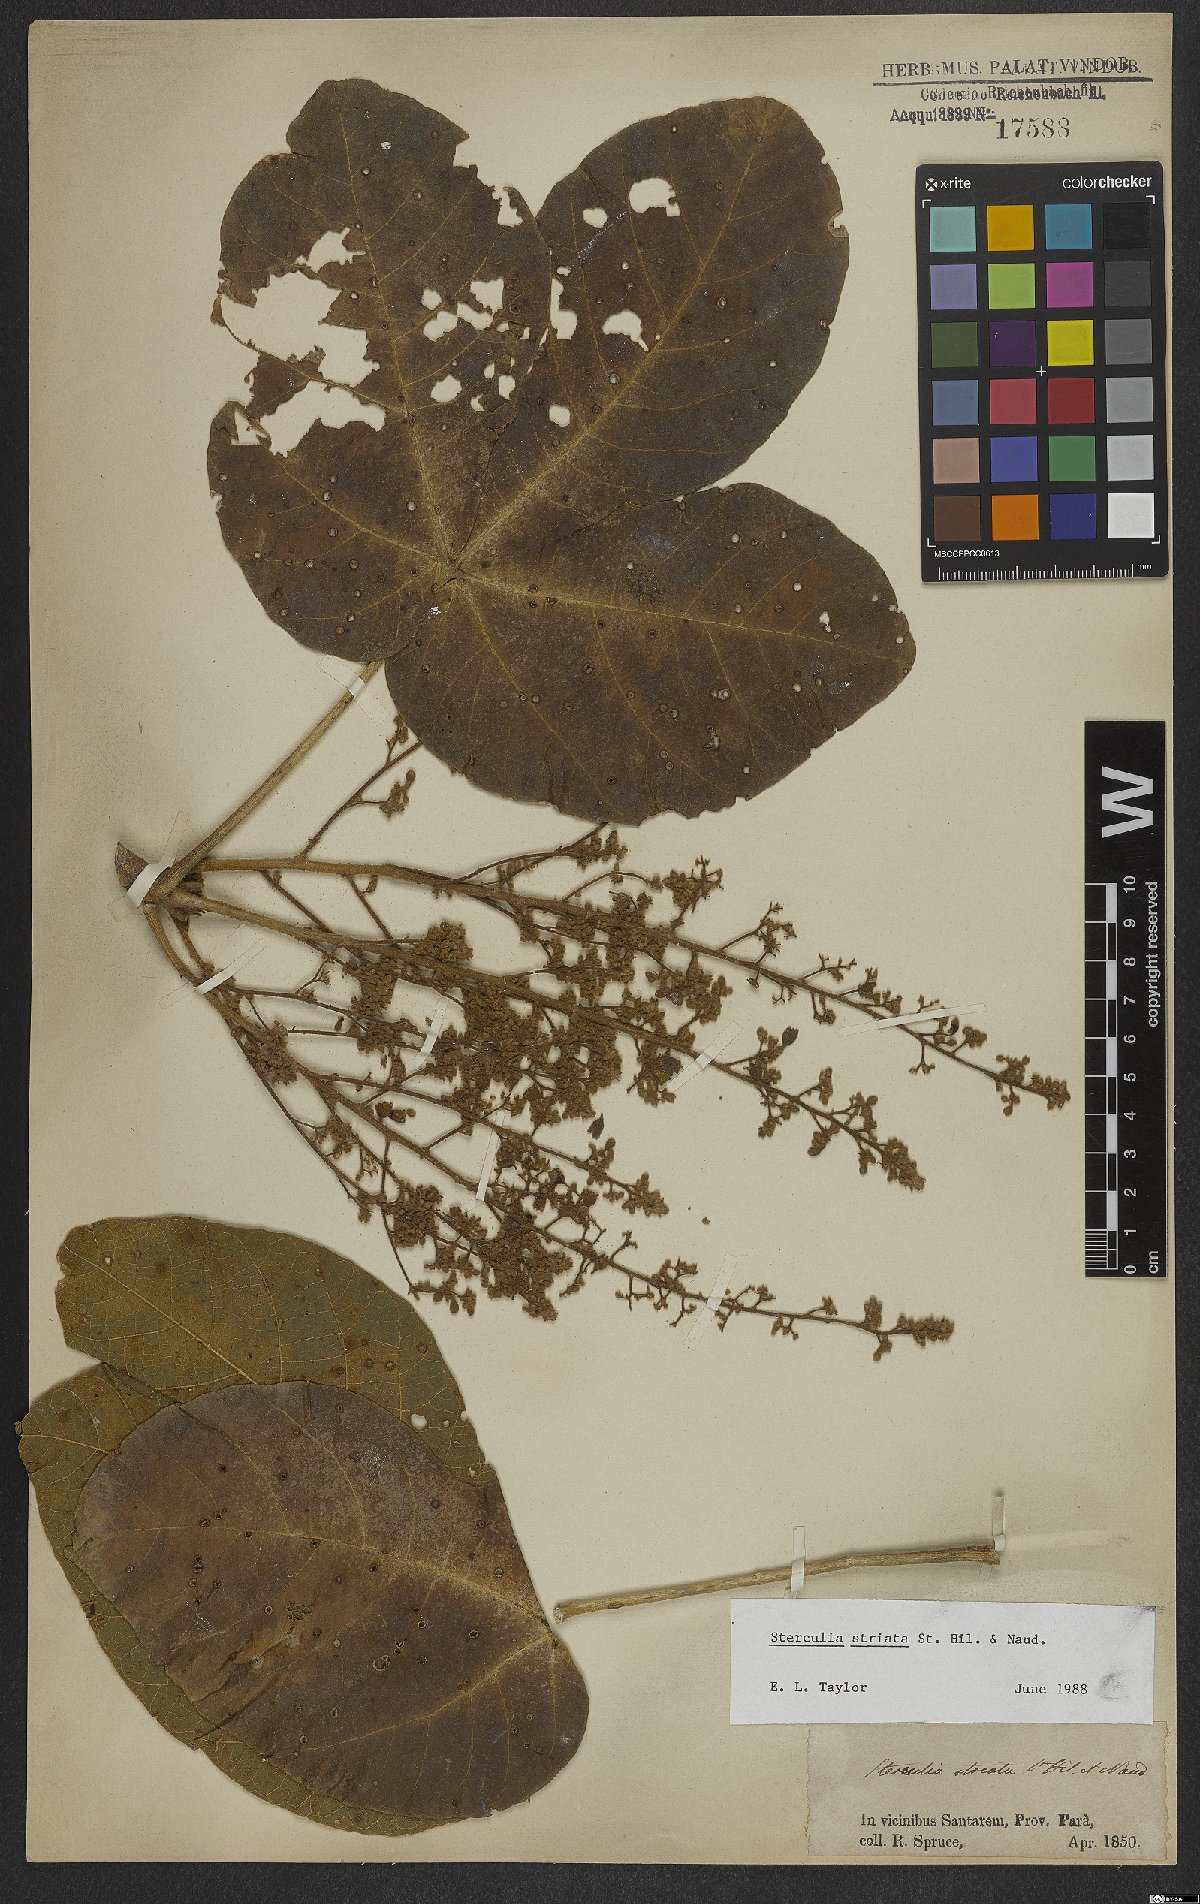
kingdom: Plantae
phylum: Tracheophyta
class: Magnoliopsida
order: Malvales
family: Malvaceae
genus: Sterculia
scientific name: Sterculia striata
